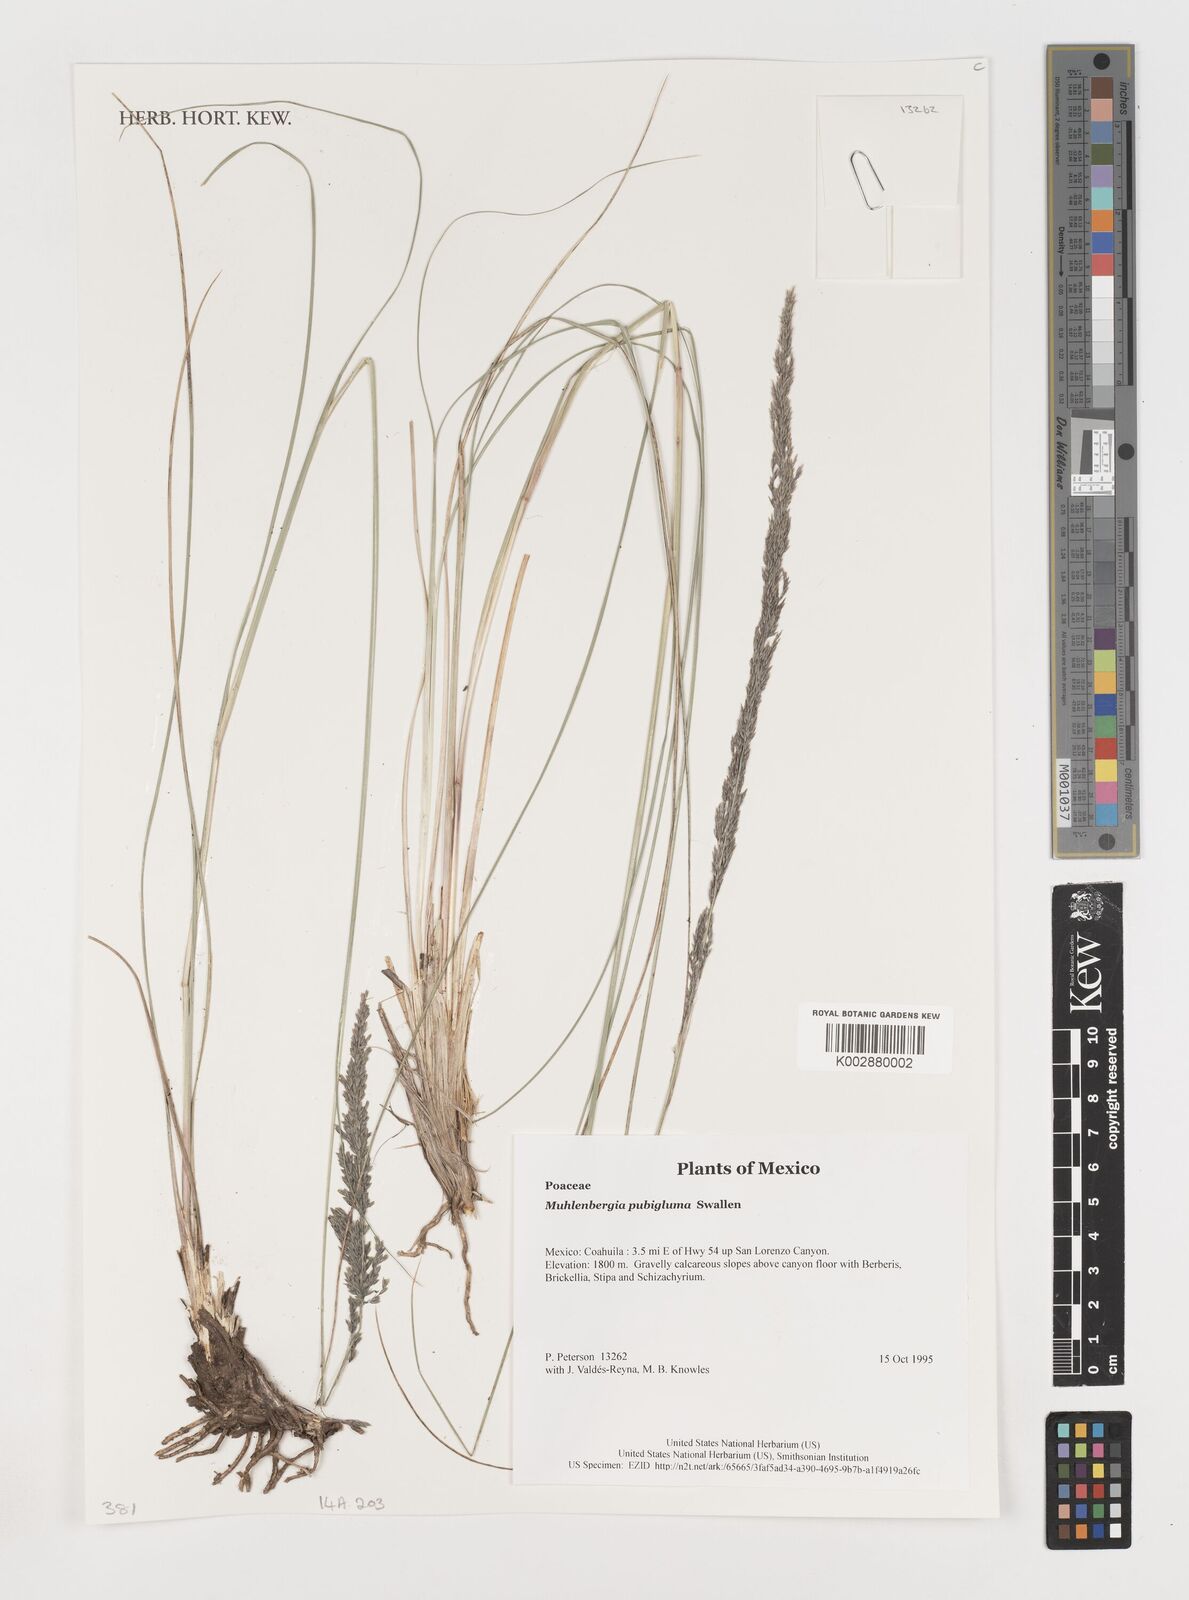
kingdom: Plantae
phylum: Tracheophyta
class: Liliopsida
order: Poales
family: Poaceae
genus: Muhlenbergia
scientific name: Muhlenbergia pubigluma
